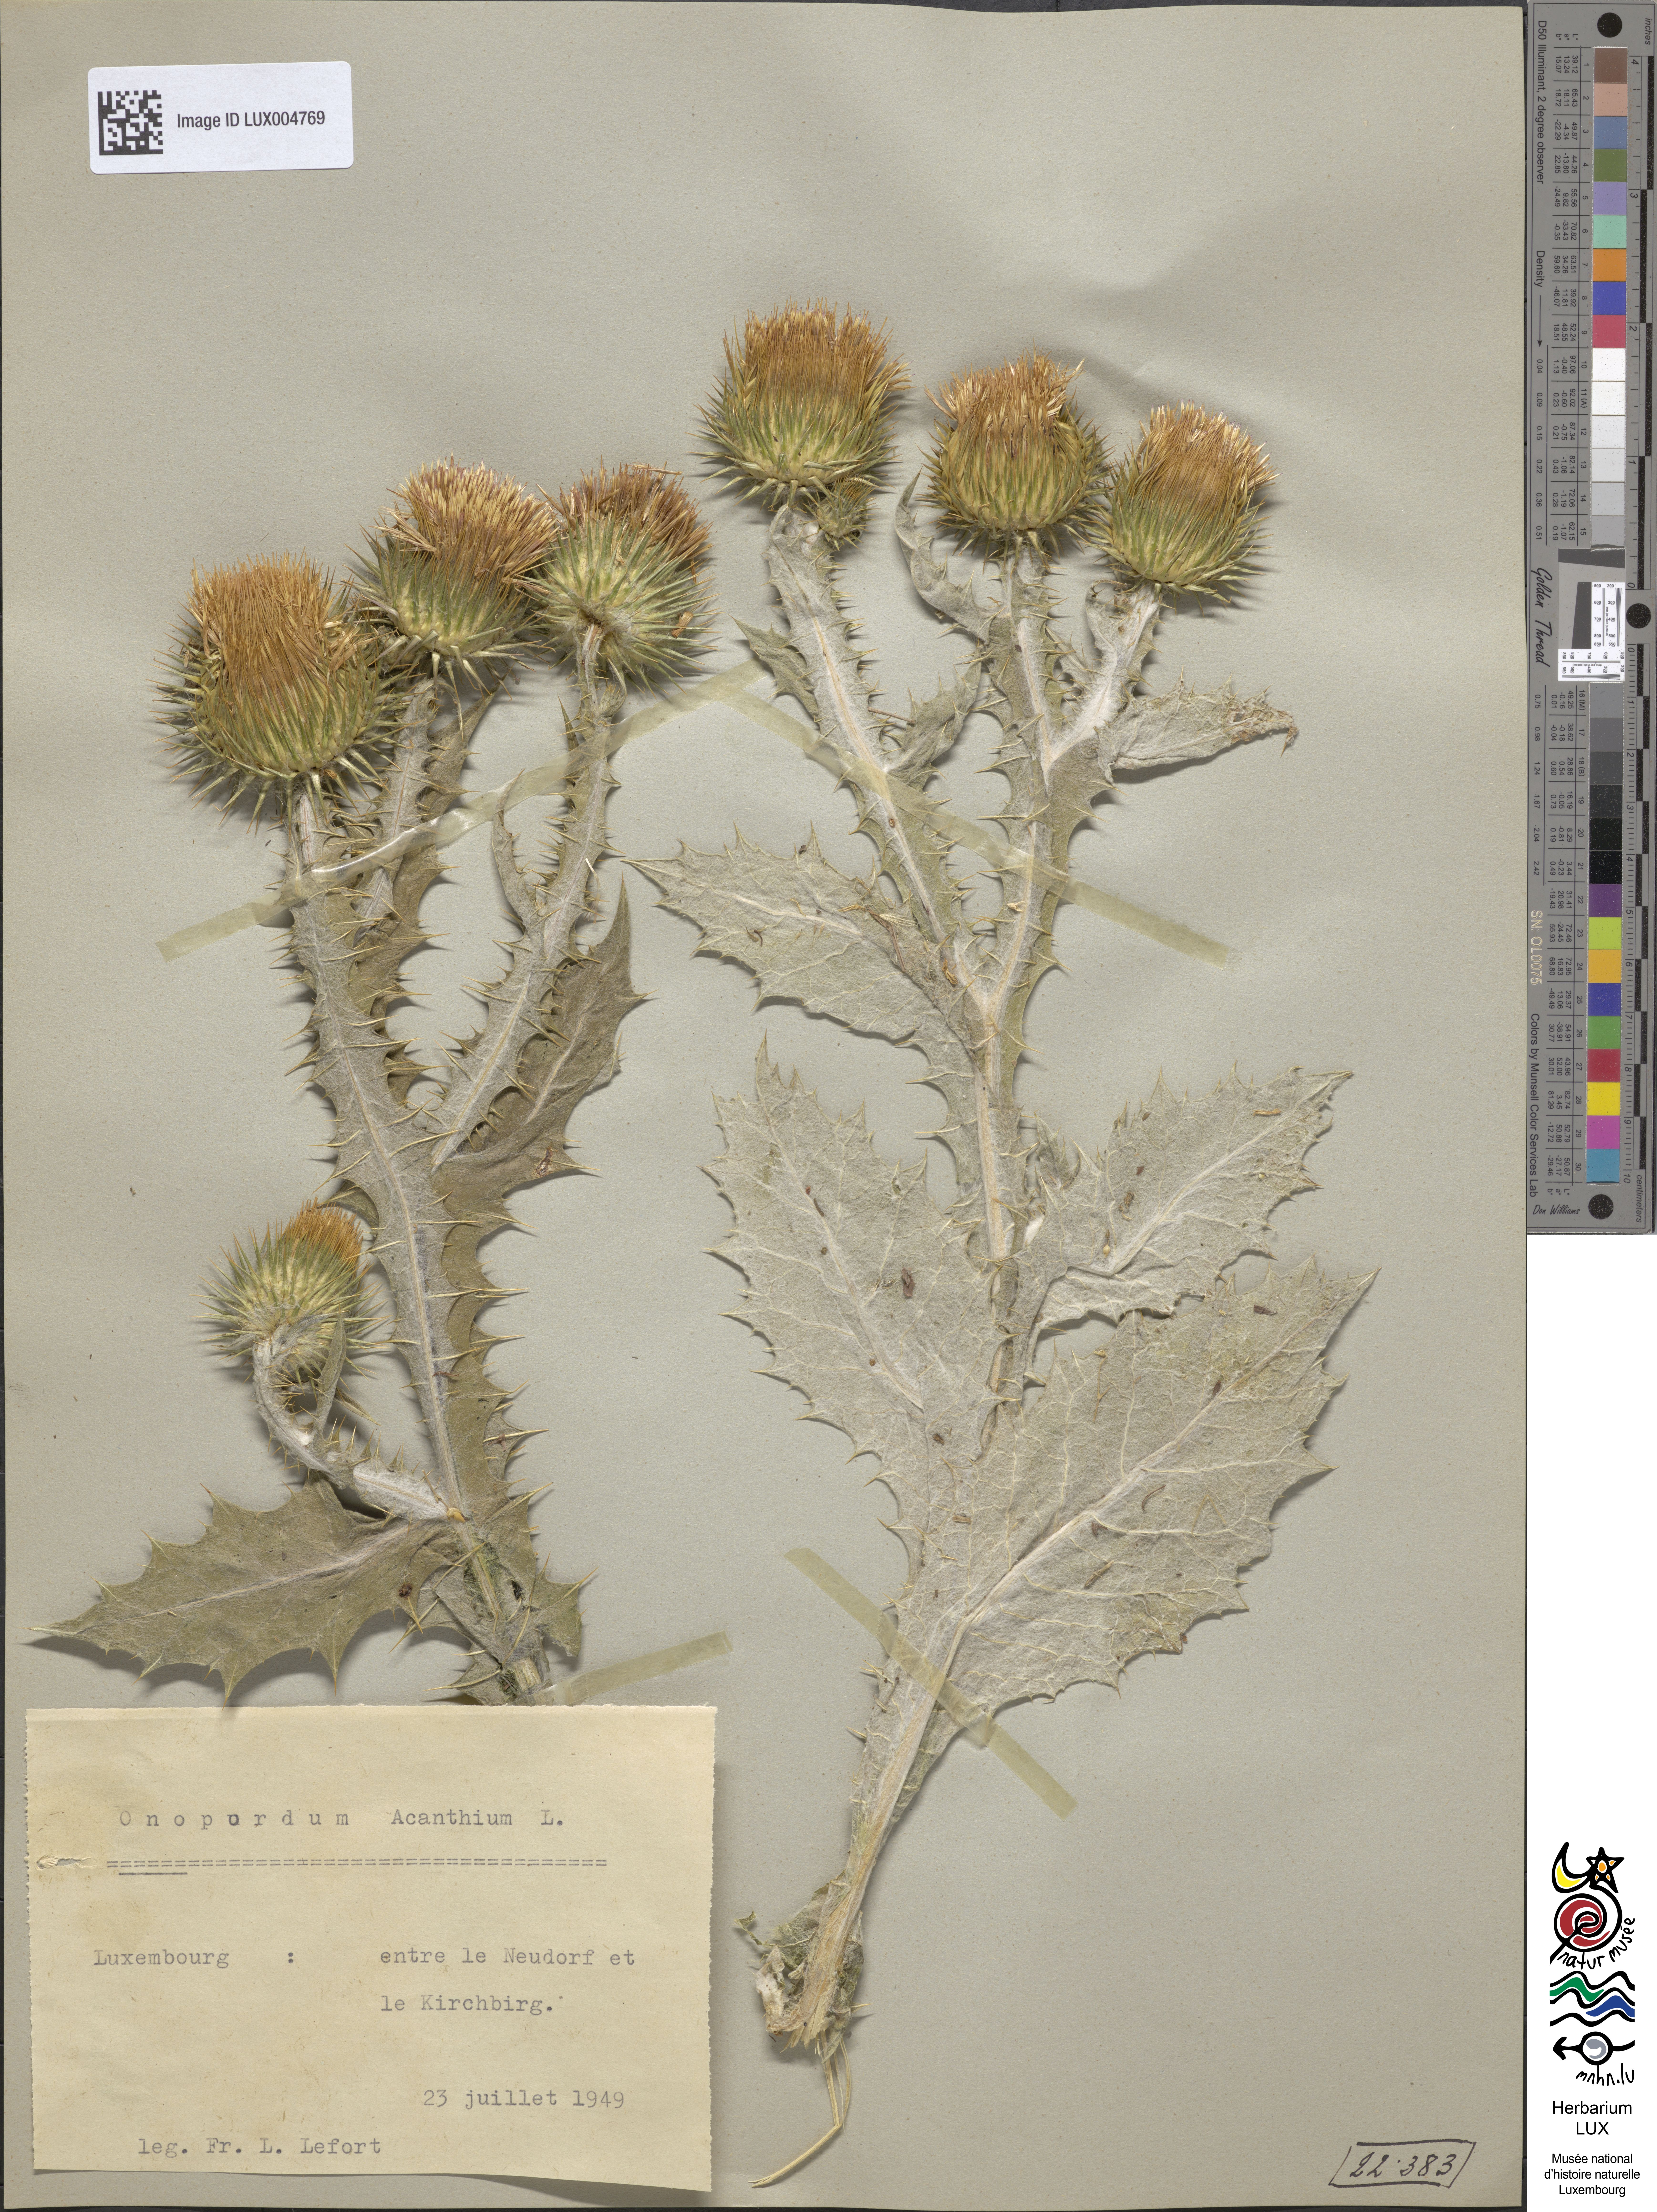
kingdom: Plantae
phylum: Tracheophyta
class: Magnoliopsida
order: Asterales
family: Asteraceae
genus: Onopordum
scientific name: Onopordum acanthium
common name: Scotch thistle
